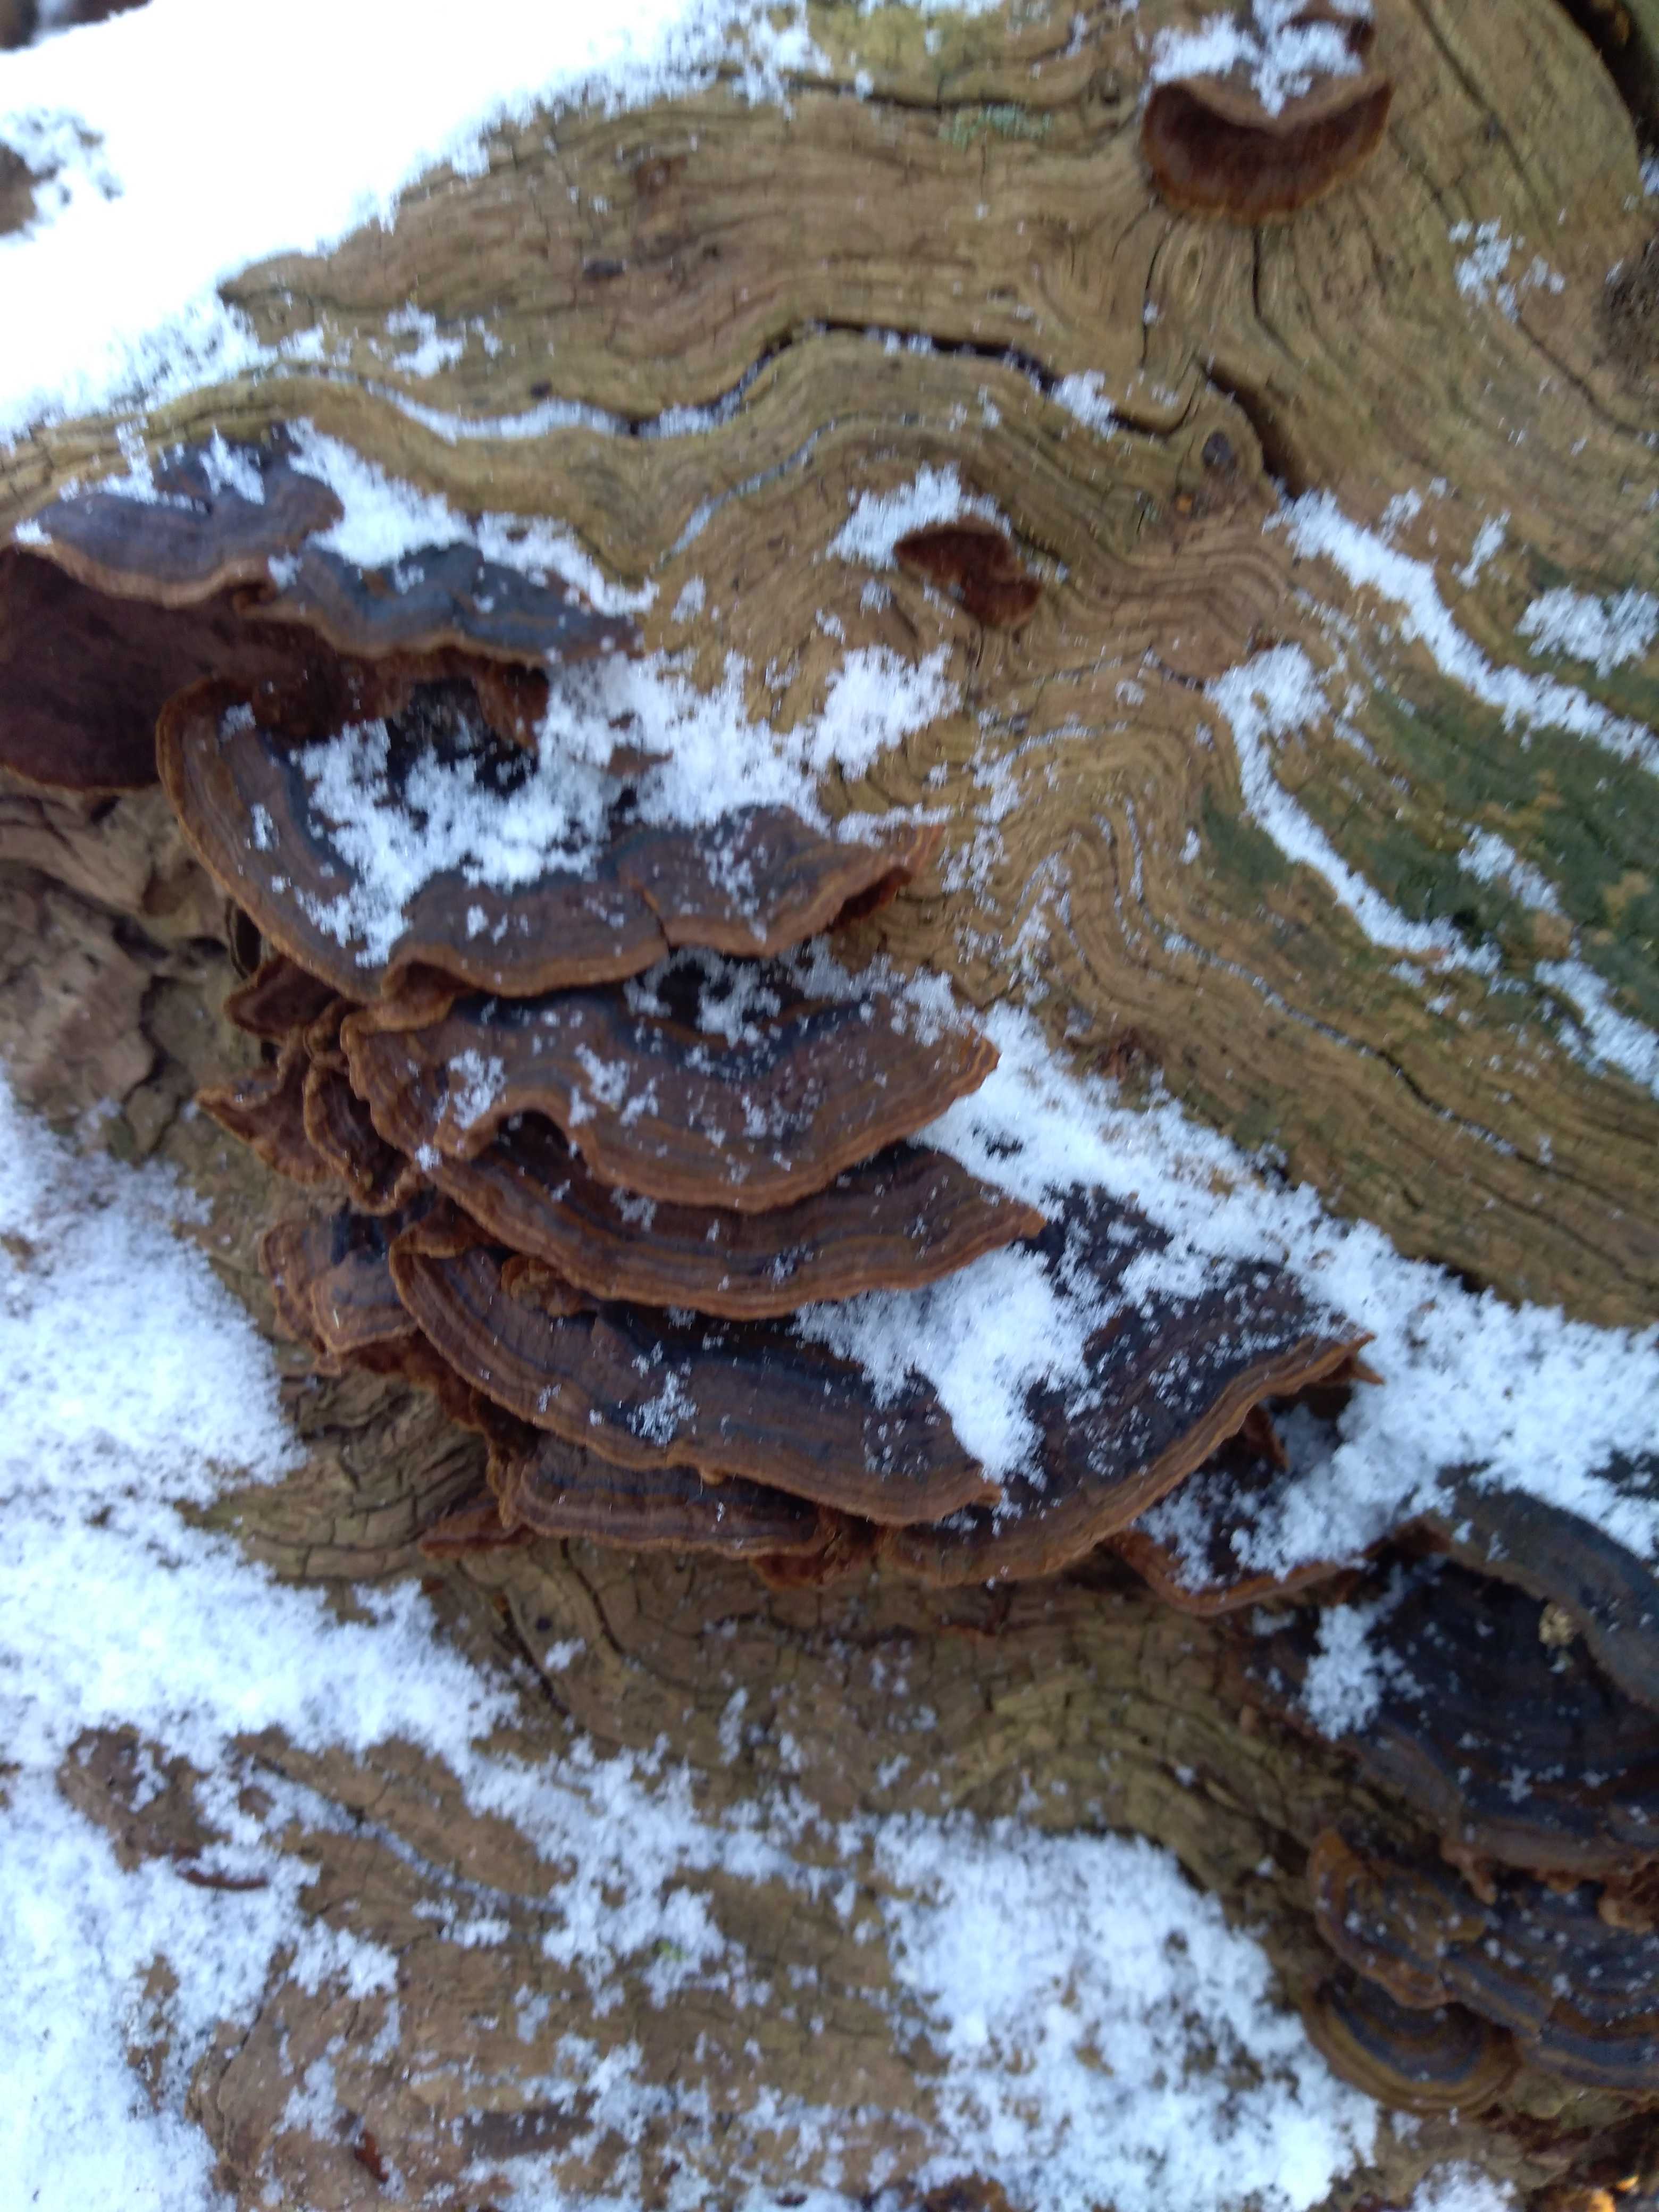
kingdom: Fungi
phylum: Basidiomycota
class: Agaricomycetes
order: Hymenochaetales
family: Hymenochaetaceae
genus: Hymenochaete
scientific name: Hymenochaete rubiginosa
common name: stiv ruslædersvamp
